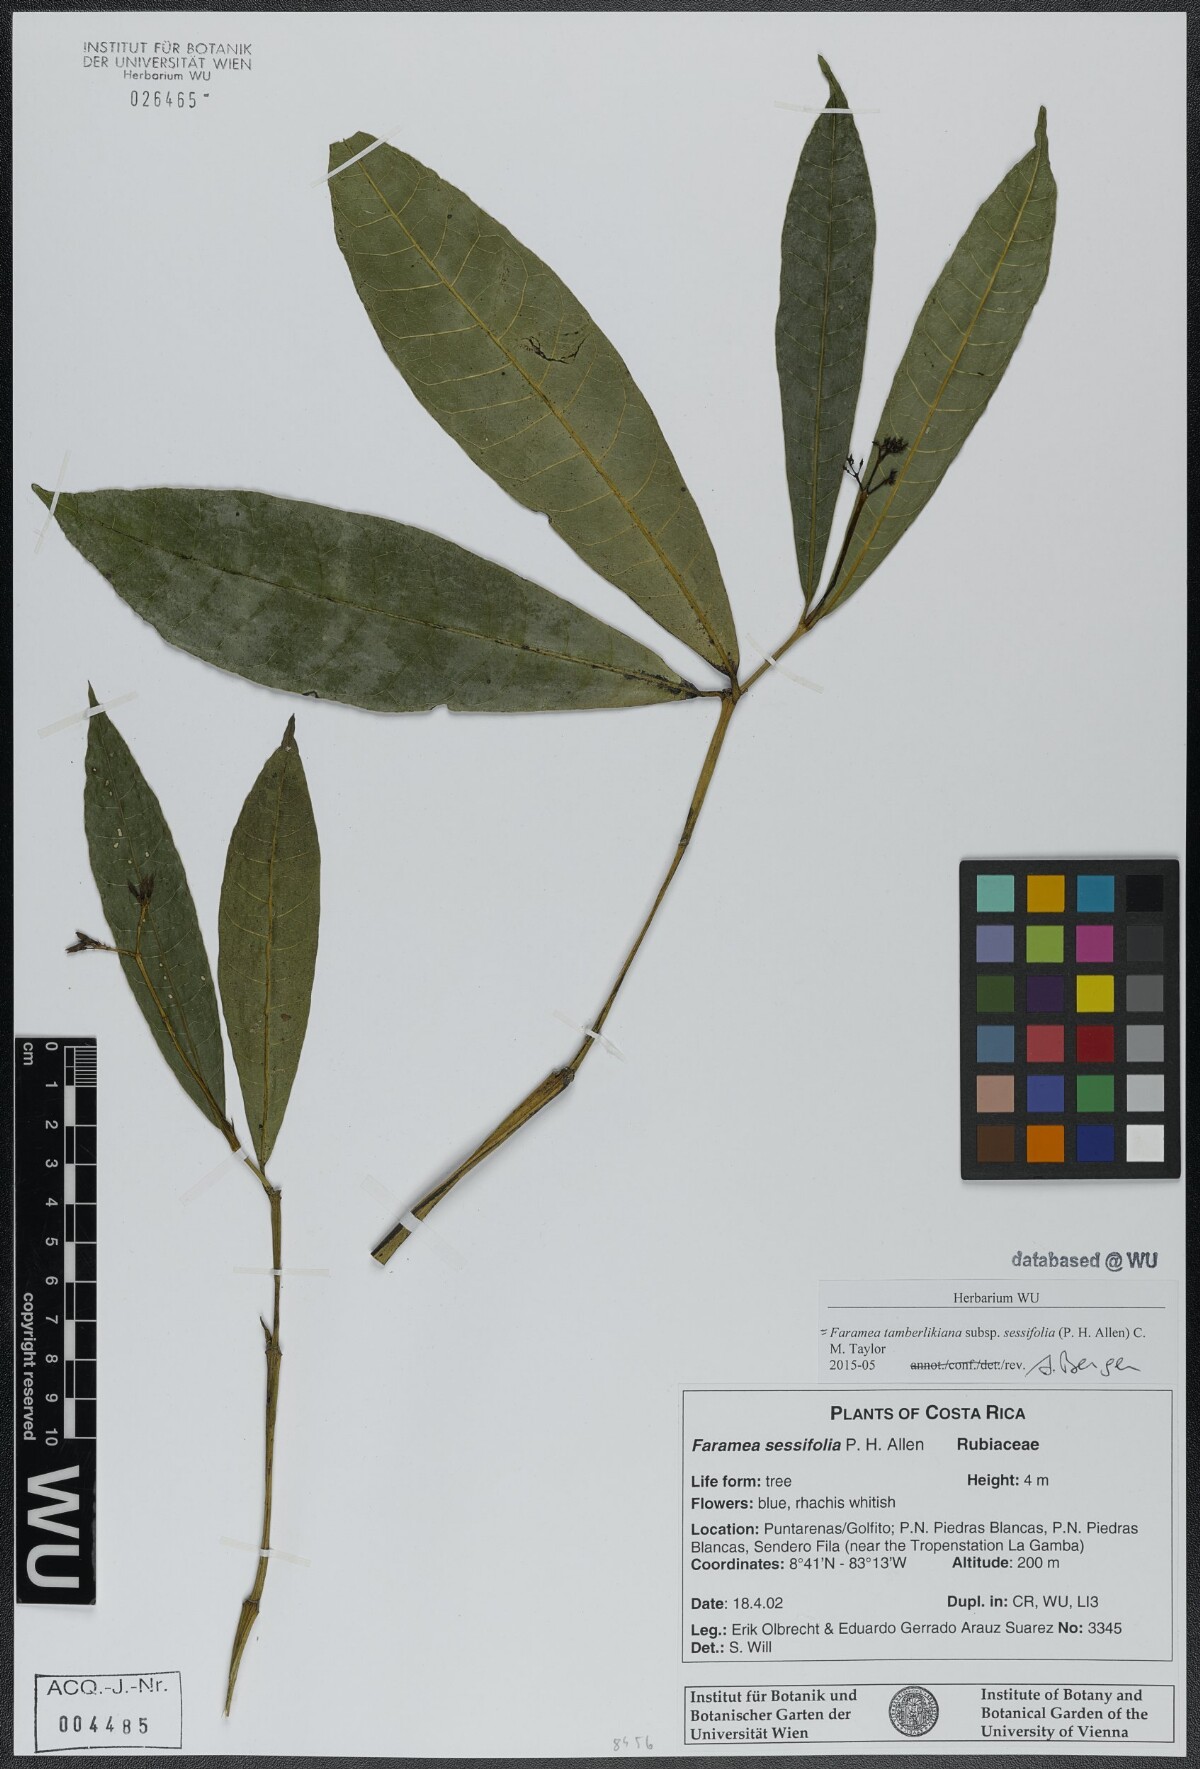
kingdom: Plantae
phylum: Tracheophyta
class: Magnoliopsida
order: Gentianales
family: Rubiaceae
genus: Faramea
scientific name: Faramea tamberlikiana
